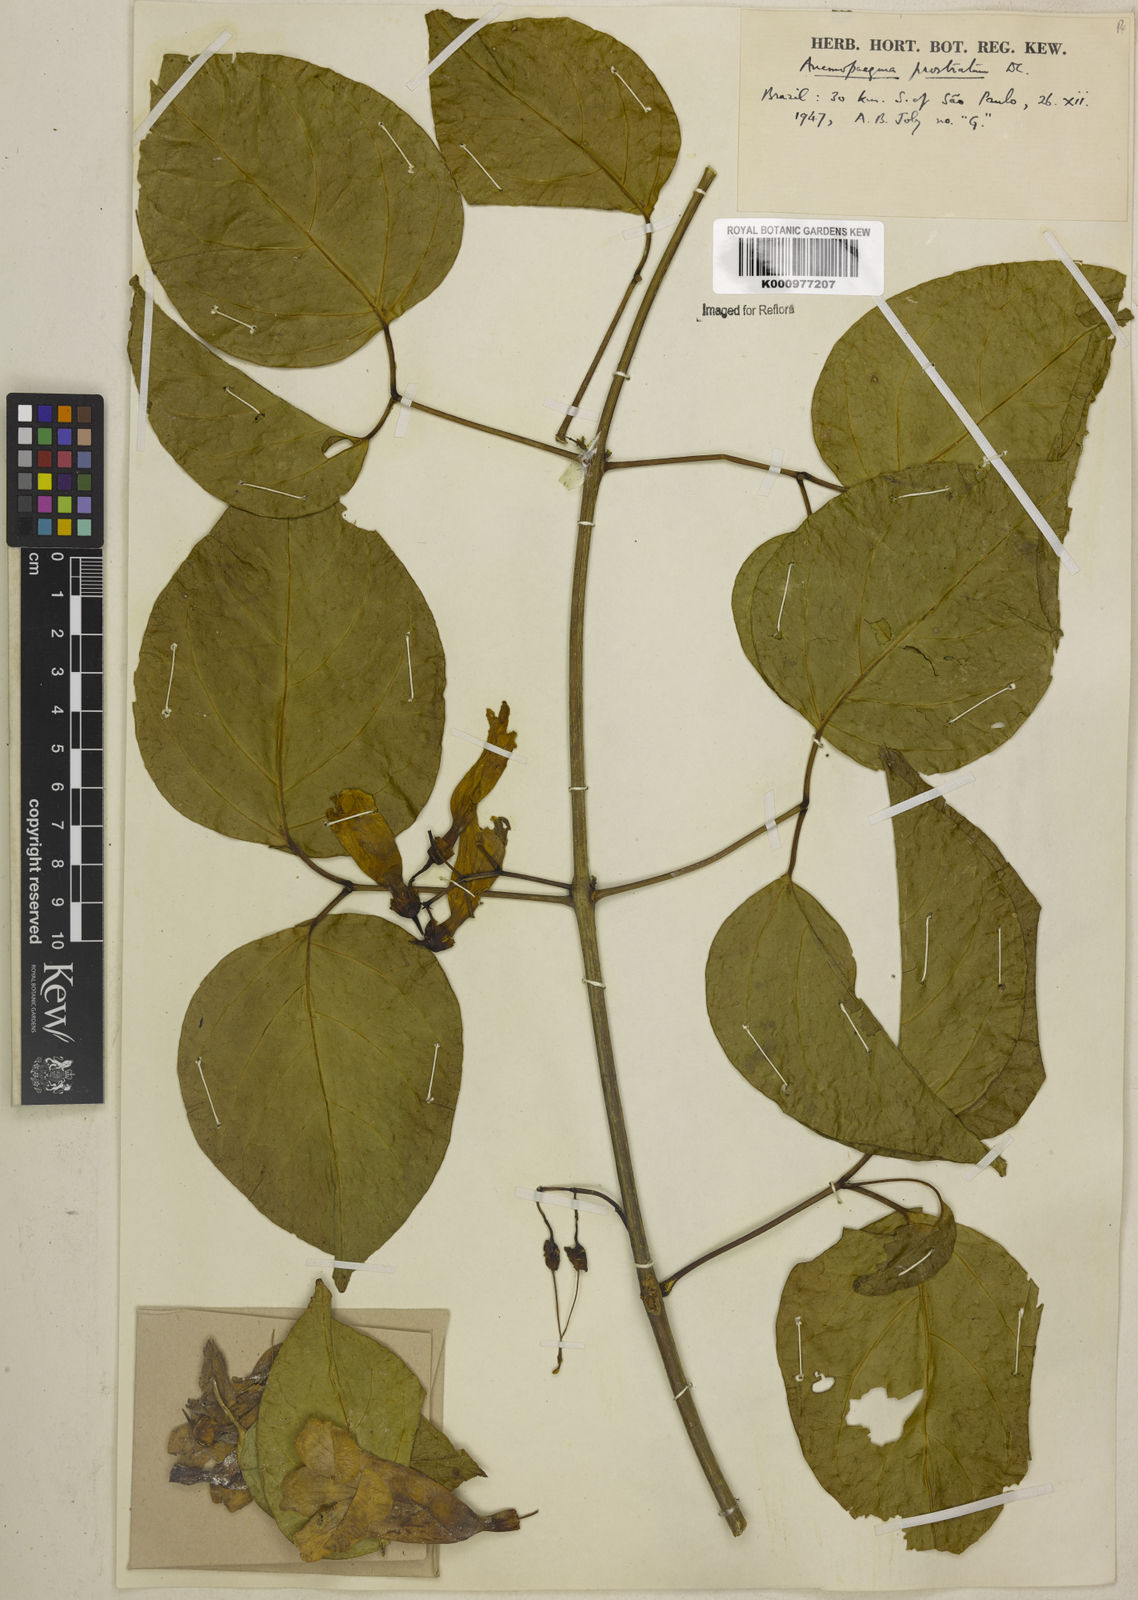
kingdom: Plantae
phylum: Tracheophyta
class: Magnoliopsida
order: Lamiales
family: Bignoniaceae
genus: Anemopaegma
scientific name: Anemopaegma prostratum
